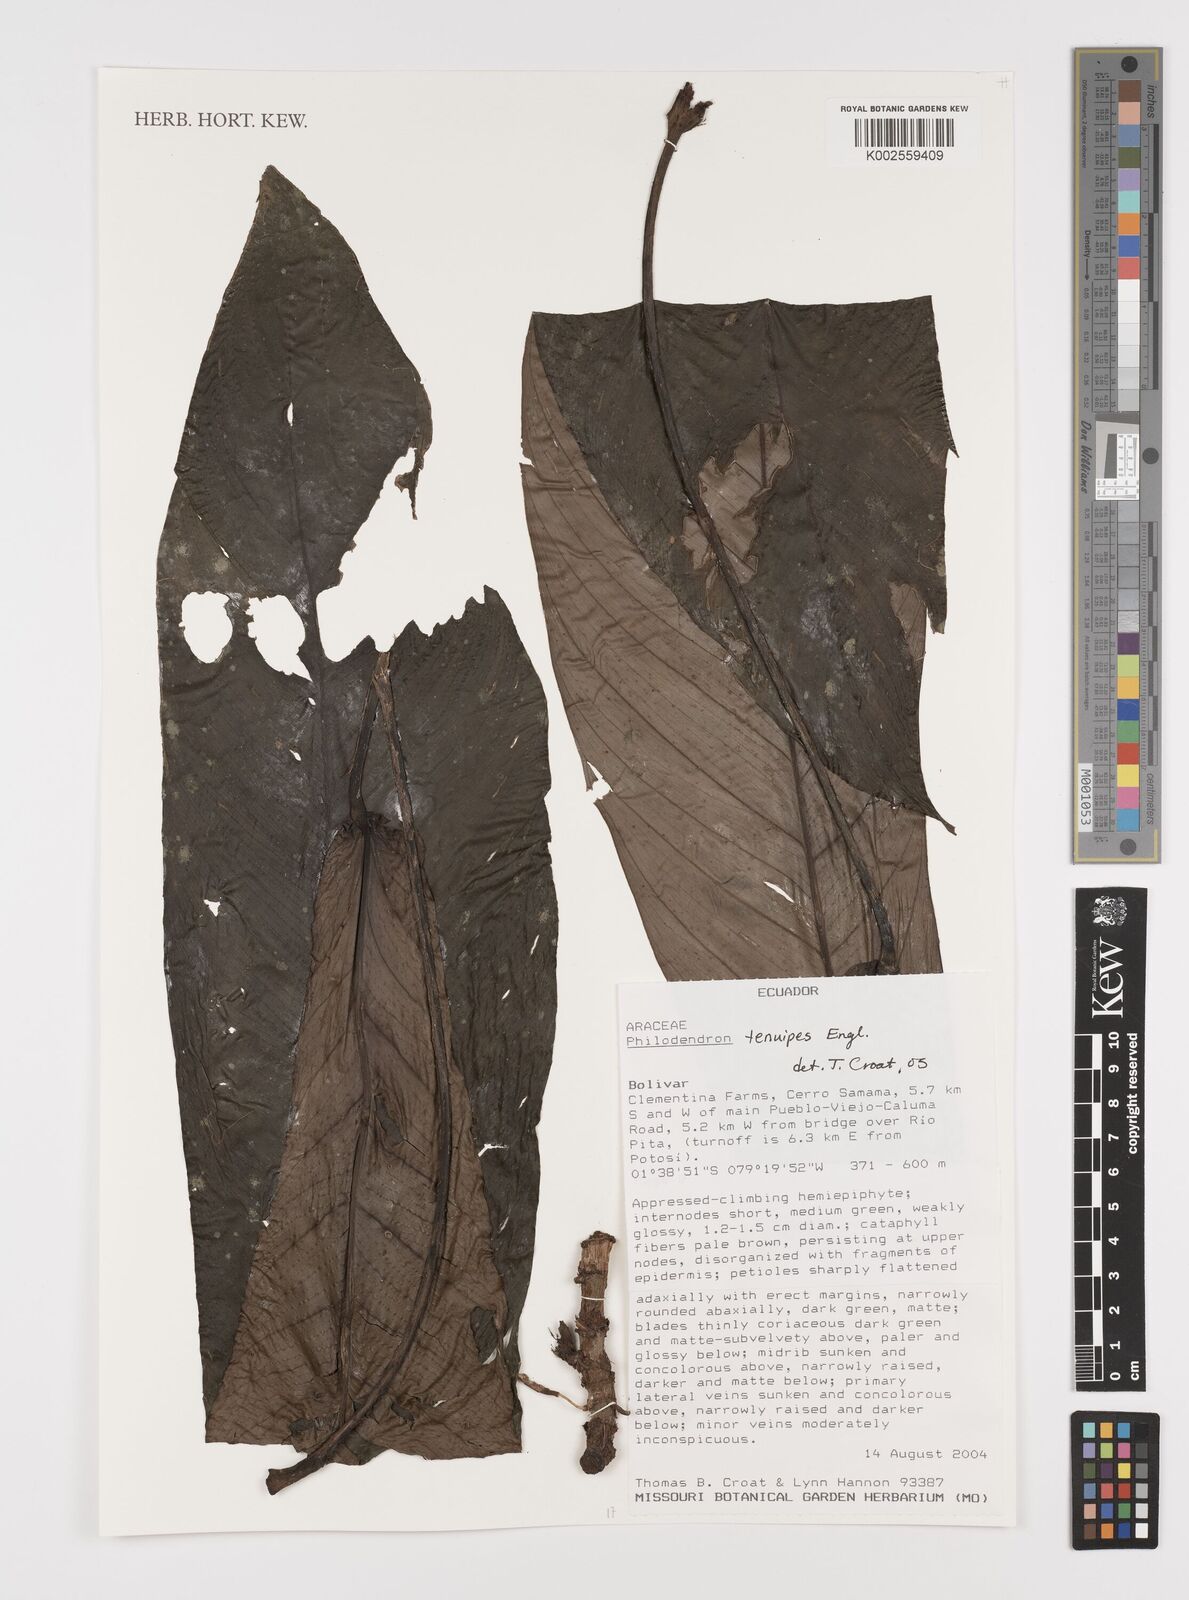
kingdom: Plantae
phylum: Tracheophyta
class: Liliopsida
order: Alismatales
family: Araceae
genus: Philodendron
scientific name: Philodendron tenuipes
